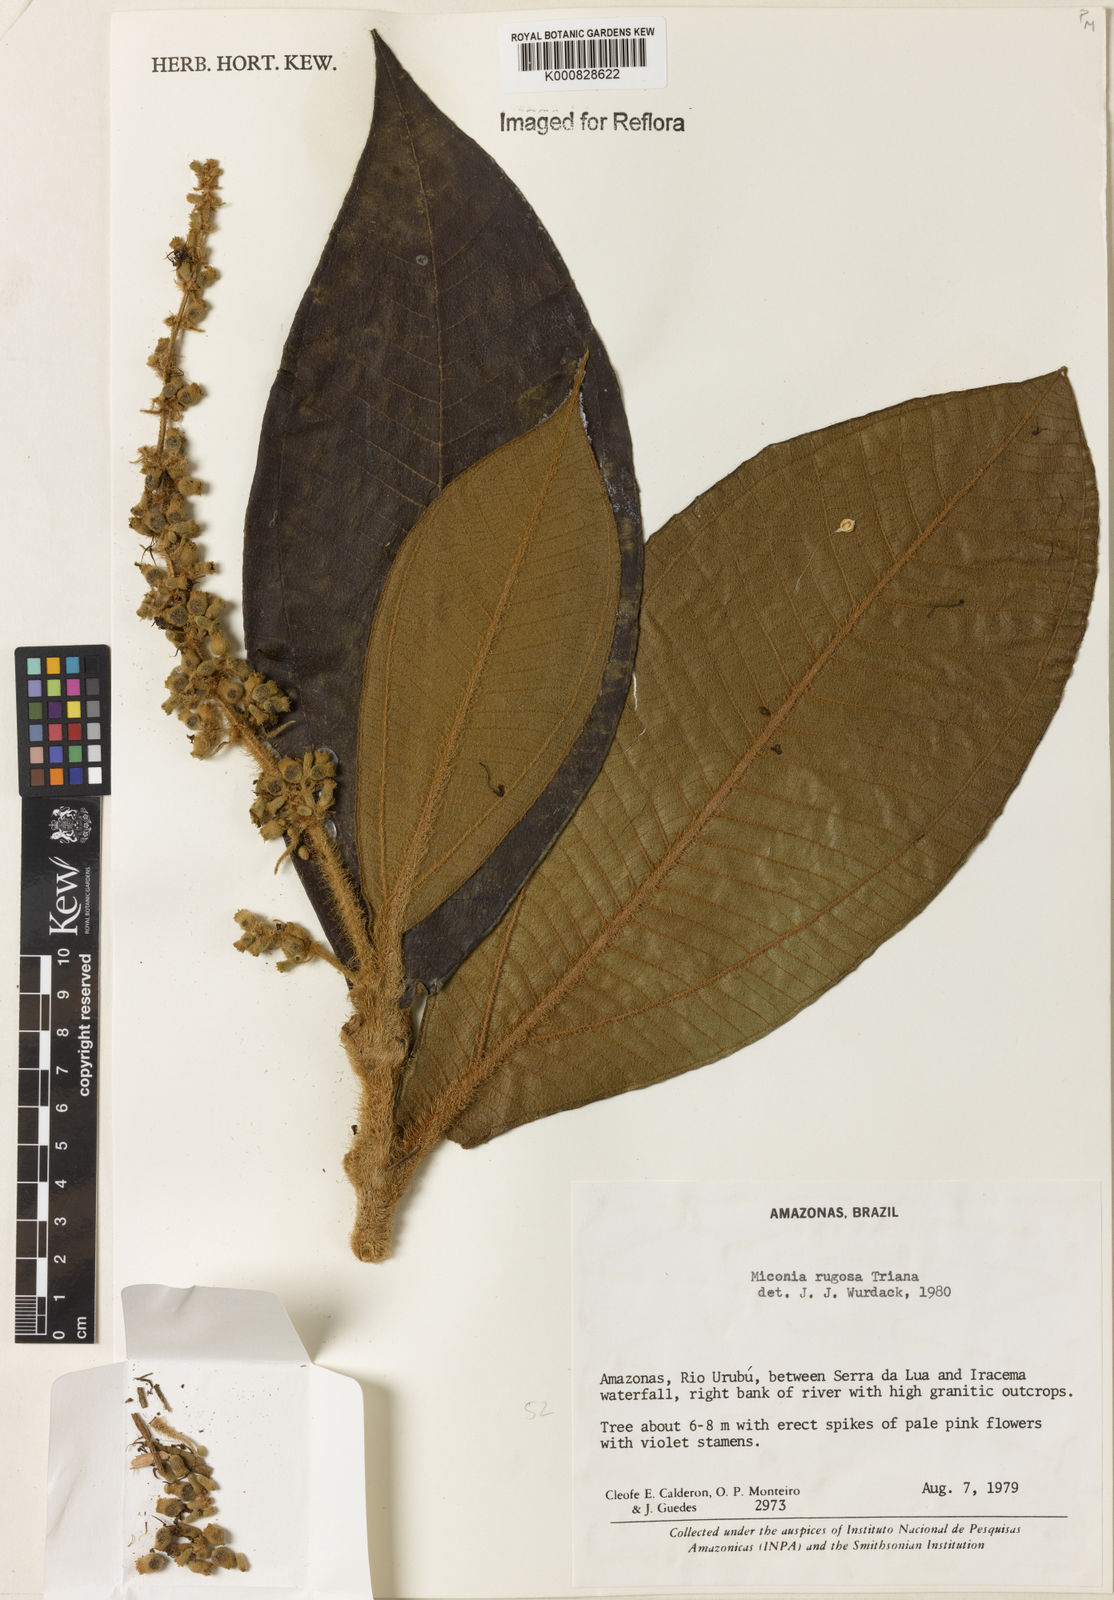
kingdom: Plantae
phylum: Tracheophyta
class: Magnoliopsida
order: Myrtales
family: Melastomataceae
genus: Miconia
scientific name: Miconia rugosa
